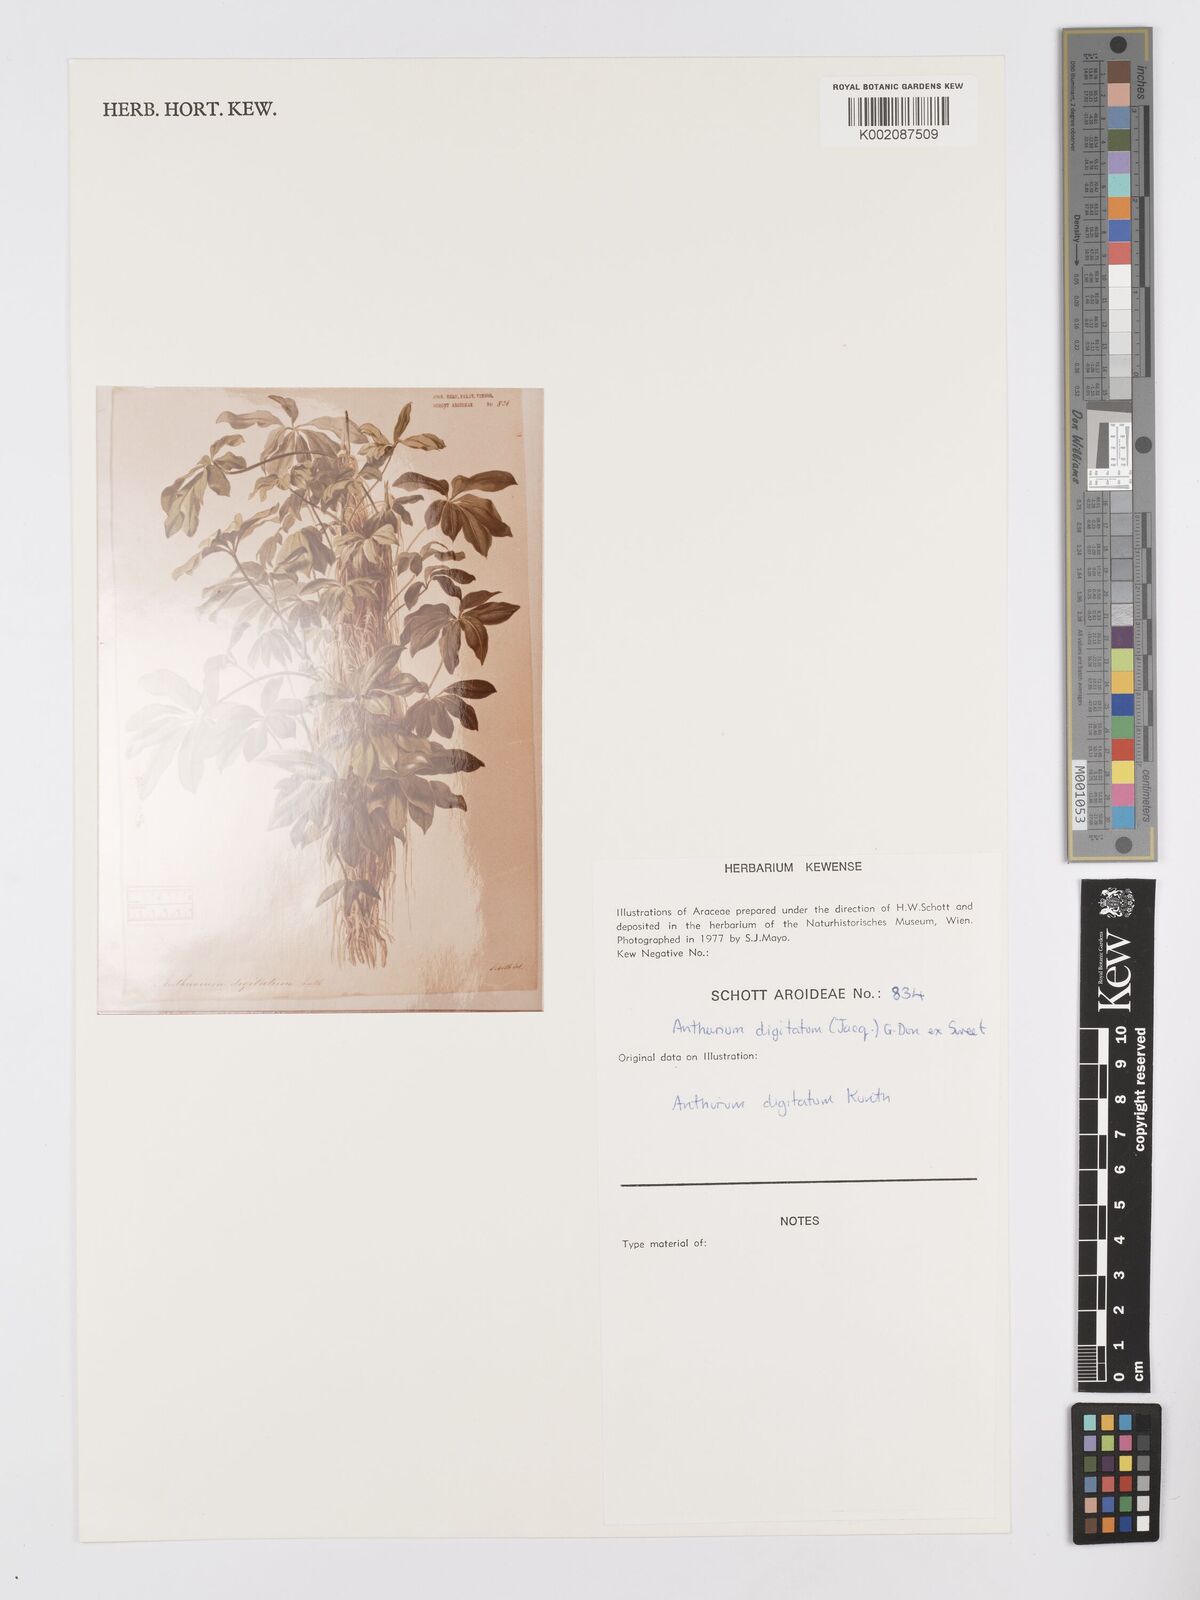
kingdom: Plantae
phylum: Tracheophyta
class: Liliopsida
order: Alismatales
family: Araceae
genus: Anthurium
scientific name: Anthurium digitatum
